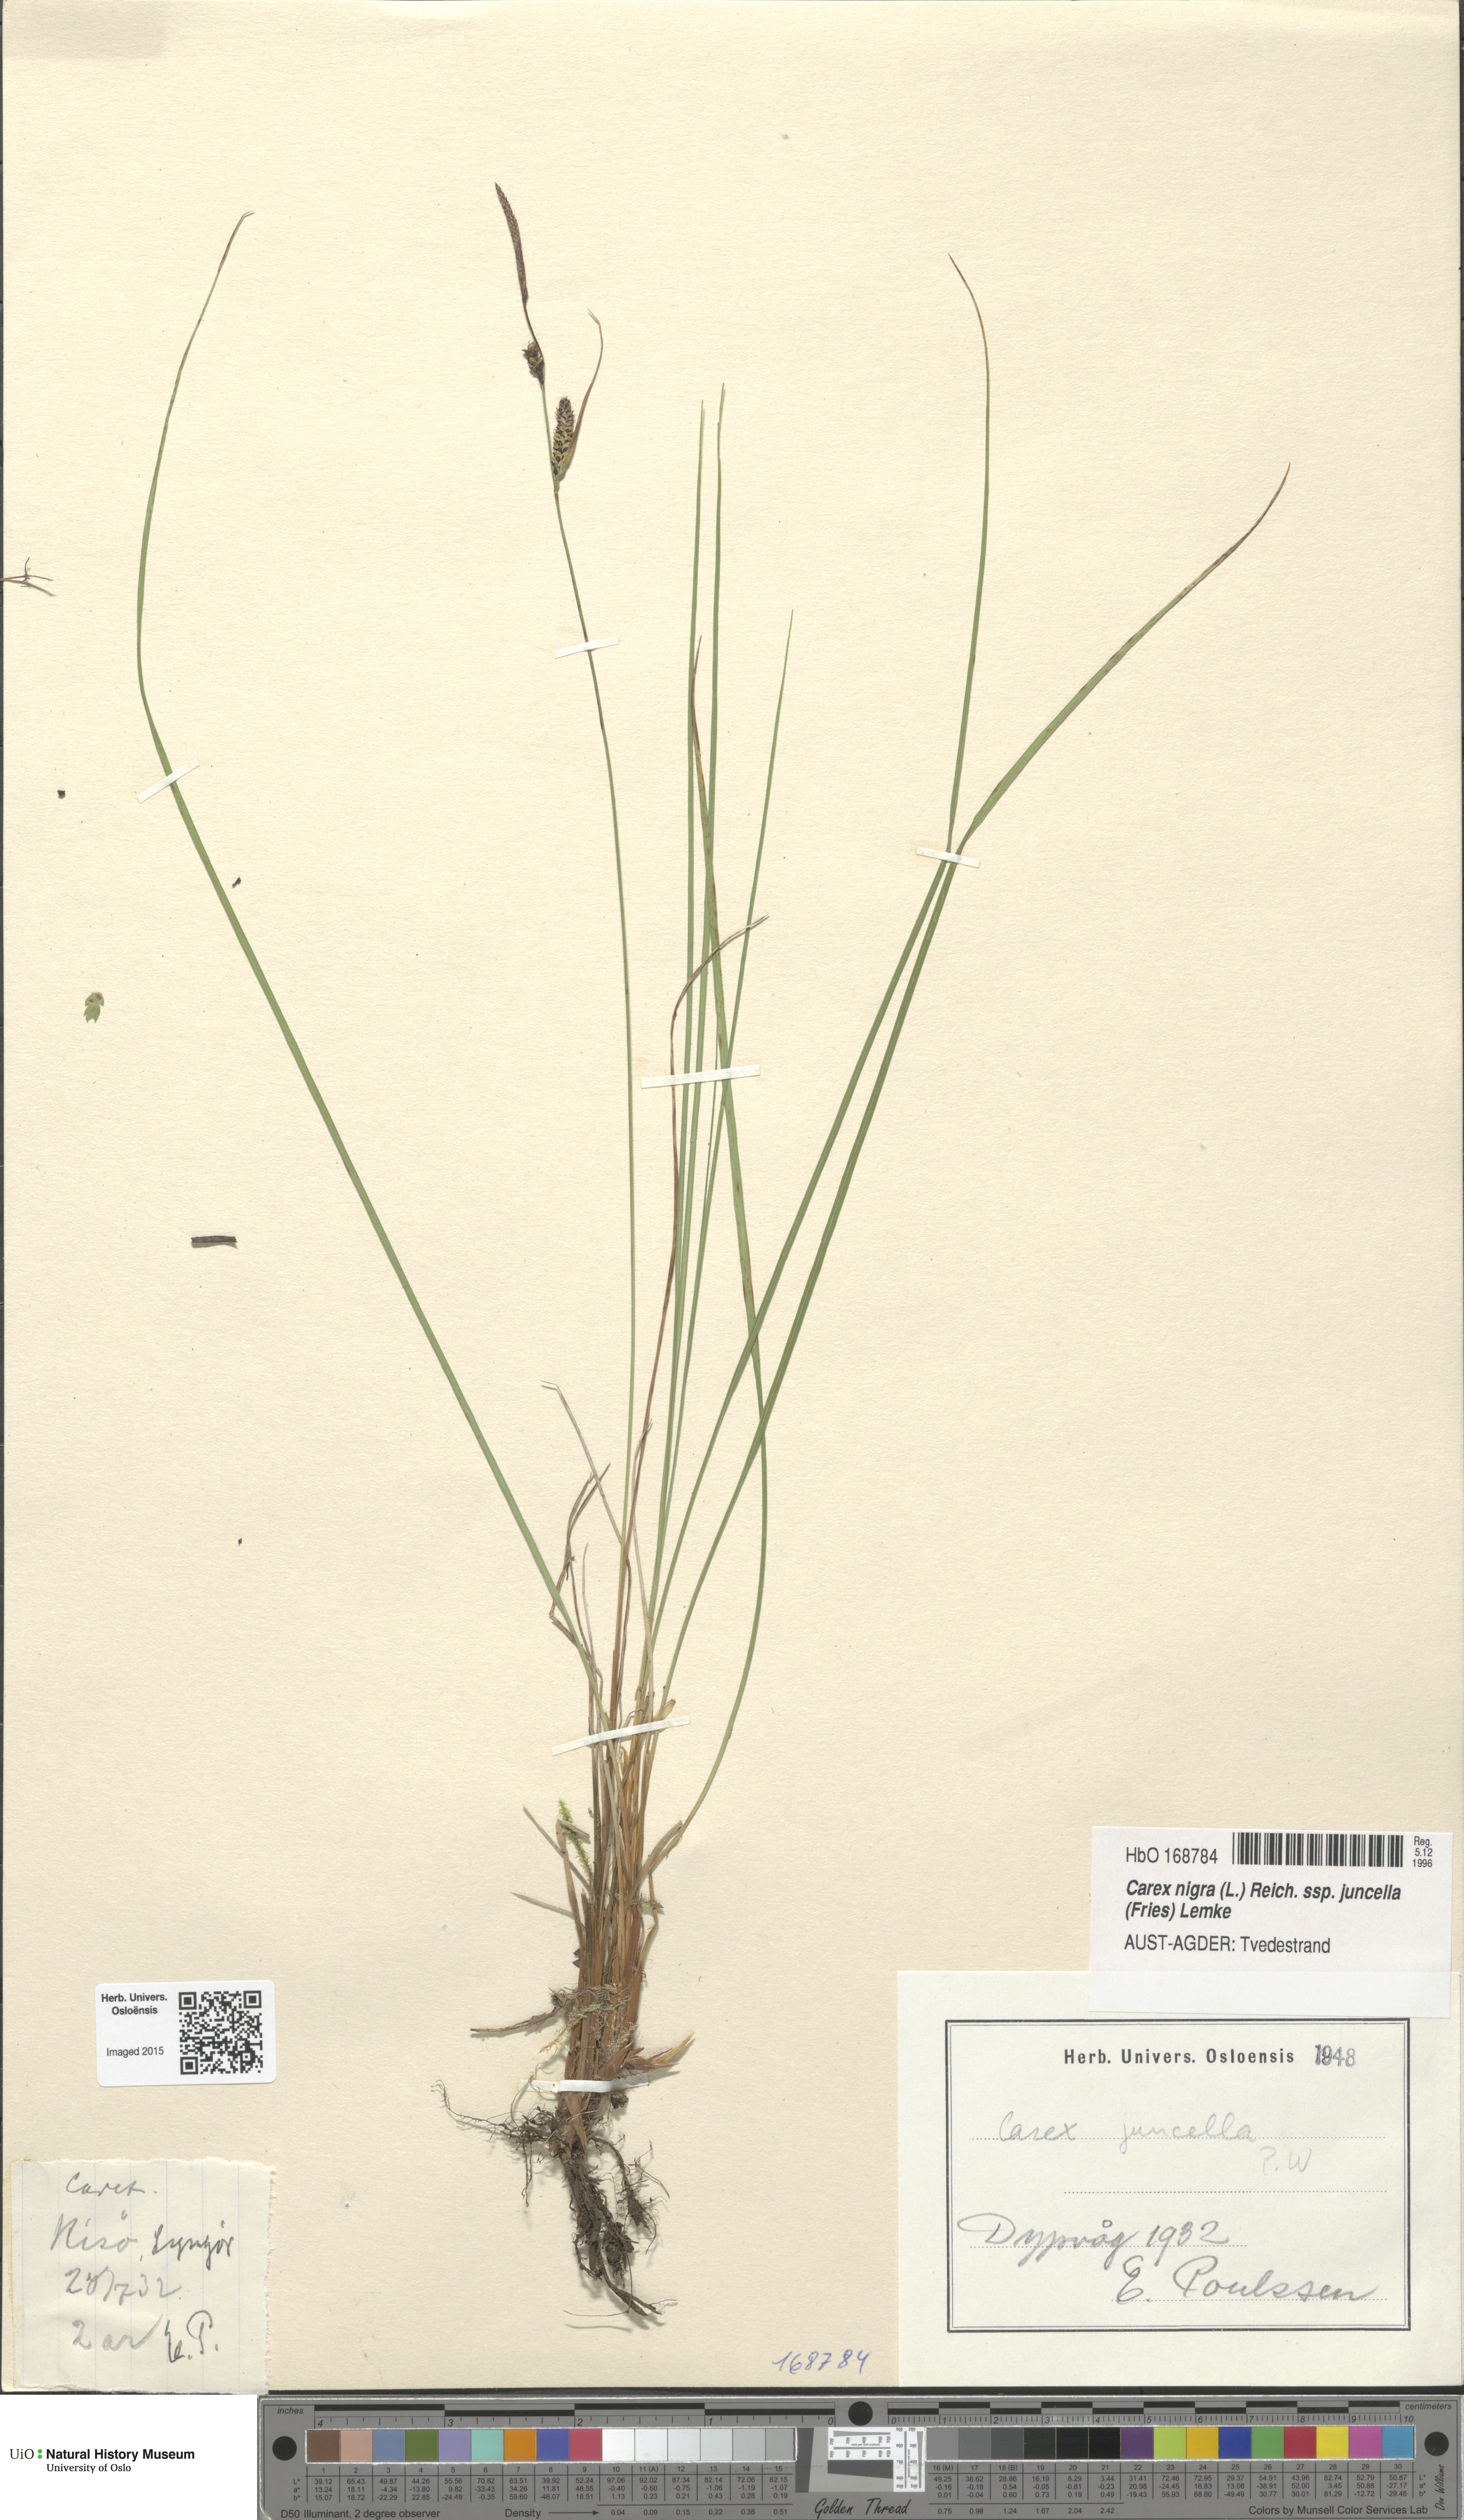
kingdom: Plantae
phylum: Tracheophyta
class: Liliopsida
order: Poales
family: Cyperaceae
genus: Carex
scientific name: Carex nigra
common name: Common sedge
